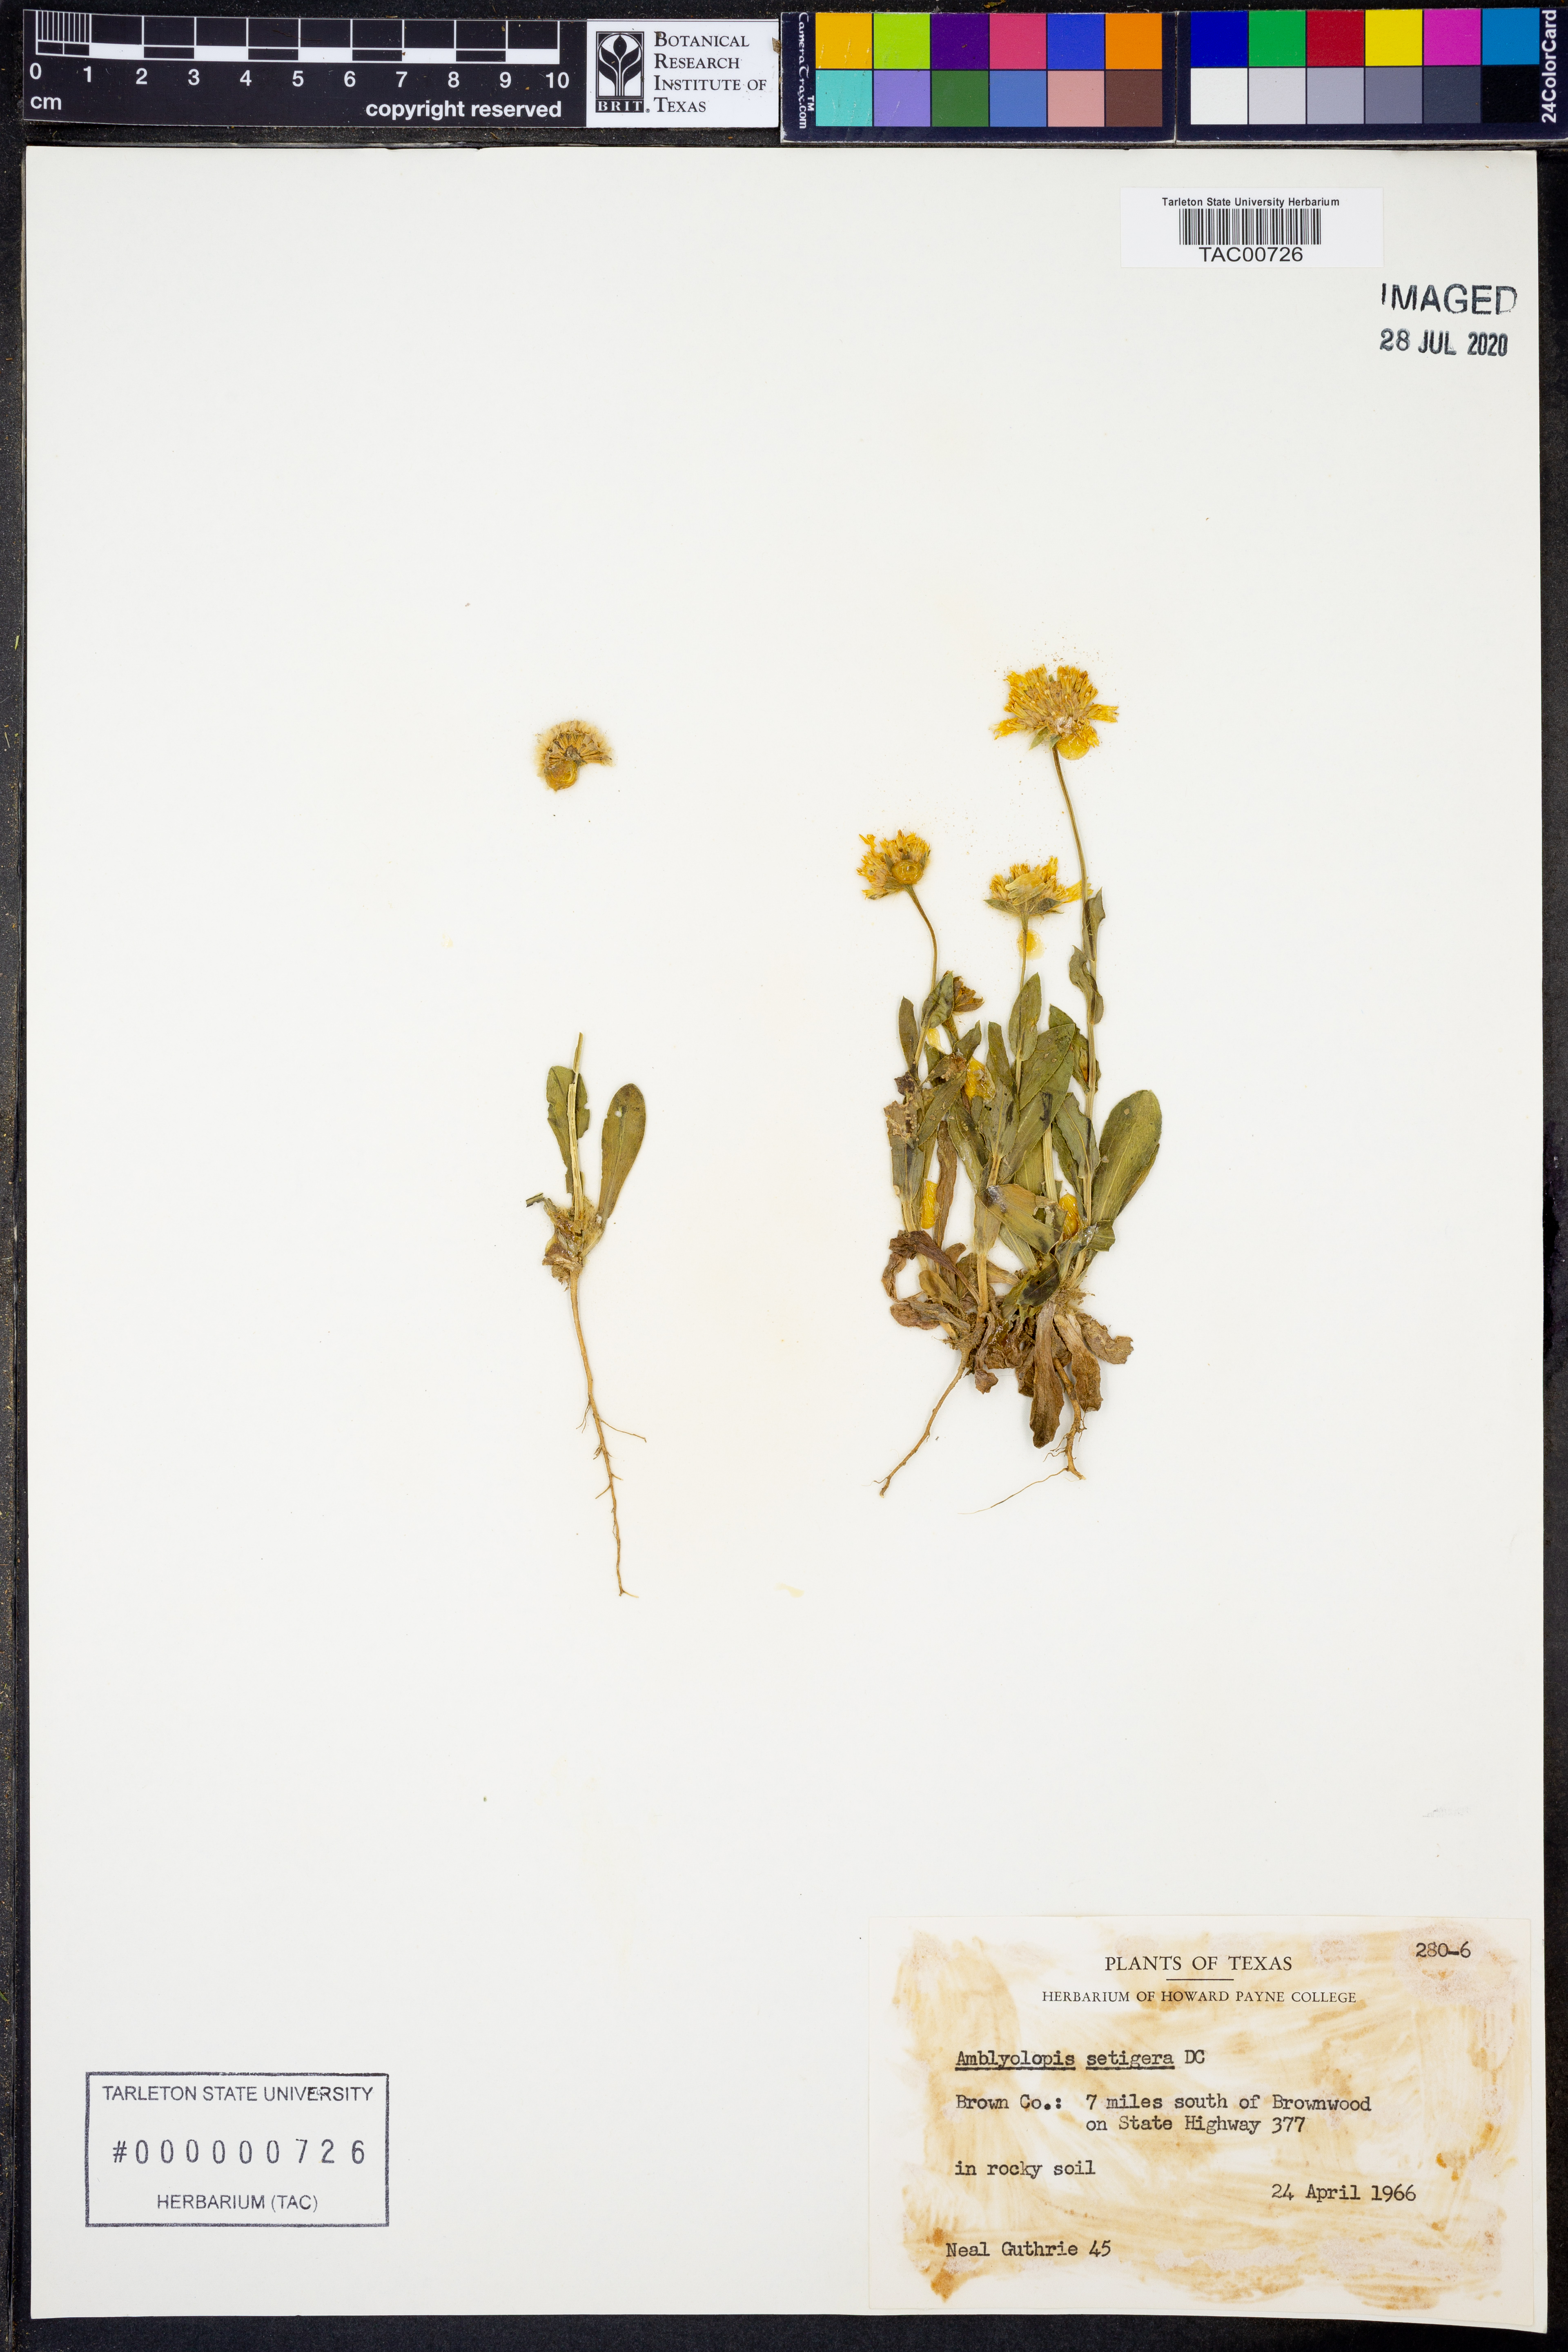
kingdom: Plantae
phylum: Tracheophyta
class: Magnoliopsida
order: Asterales
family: Asteraceae
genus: Amblyolepis
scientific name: Amblyolepis setigera
